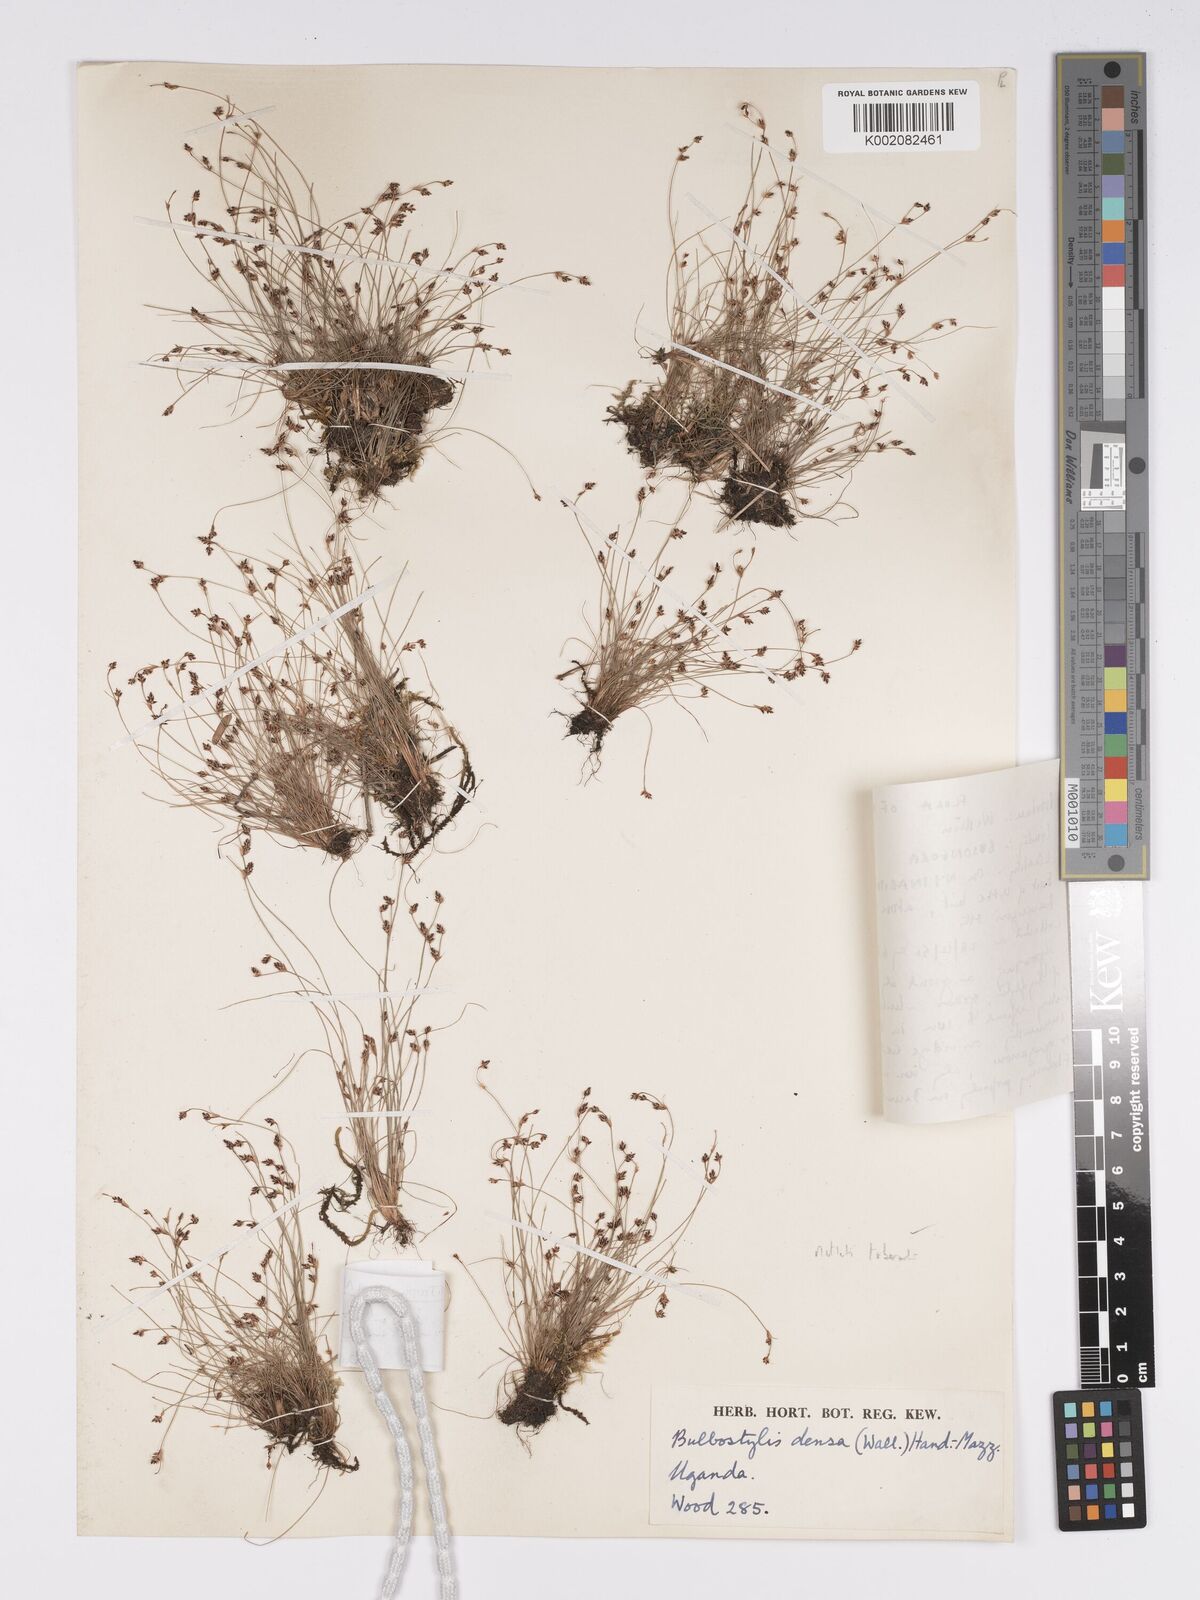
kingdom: Plantae
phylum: Tracheophyta
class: Liliopsida
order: Poales
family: Cyperaceae
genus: Bulbostylis
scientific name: Bulbostylis densa
